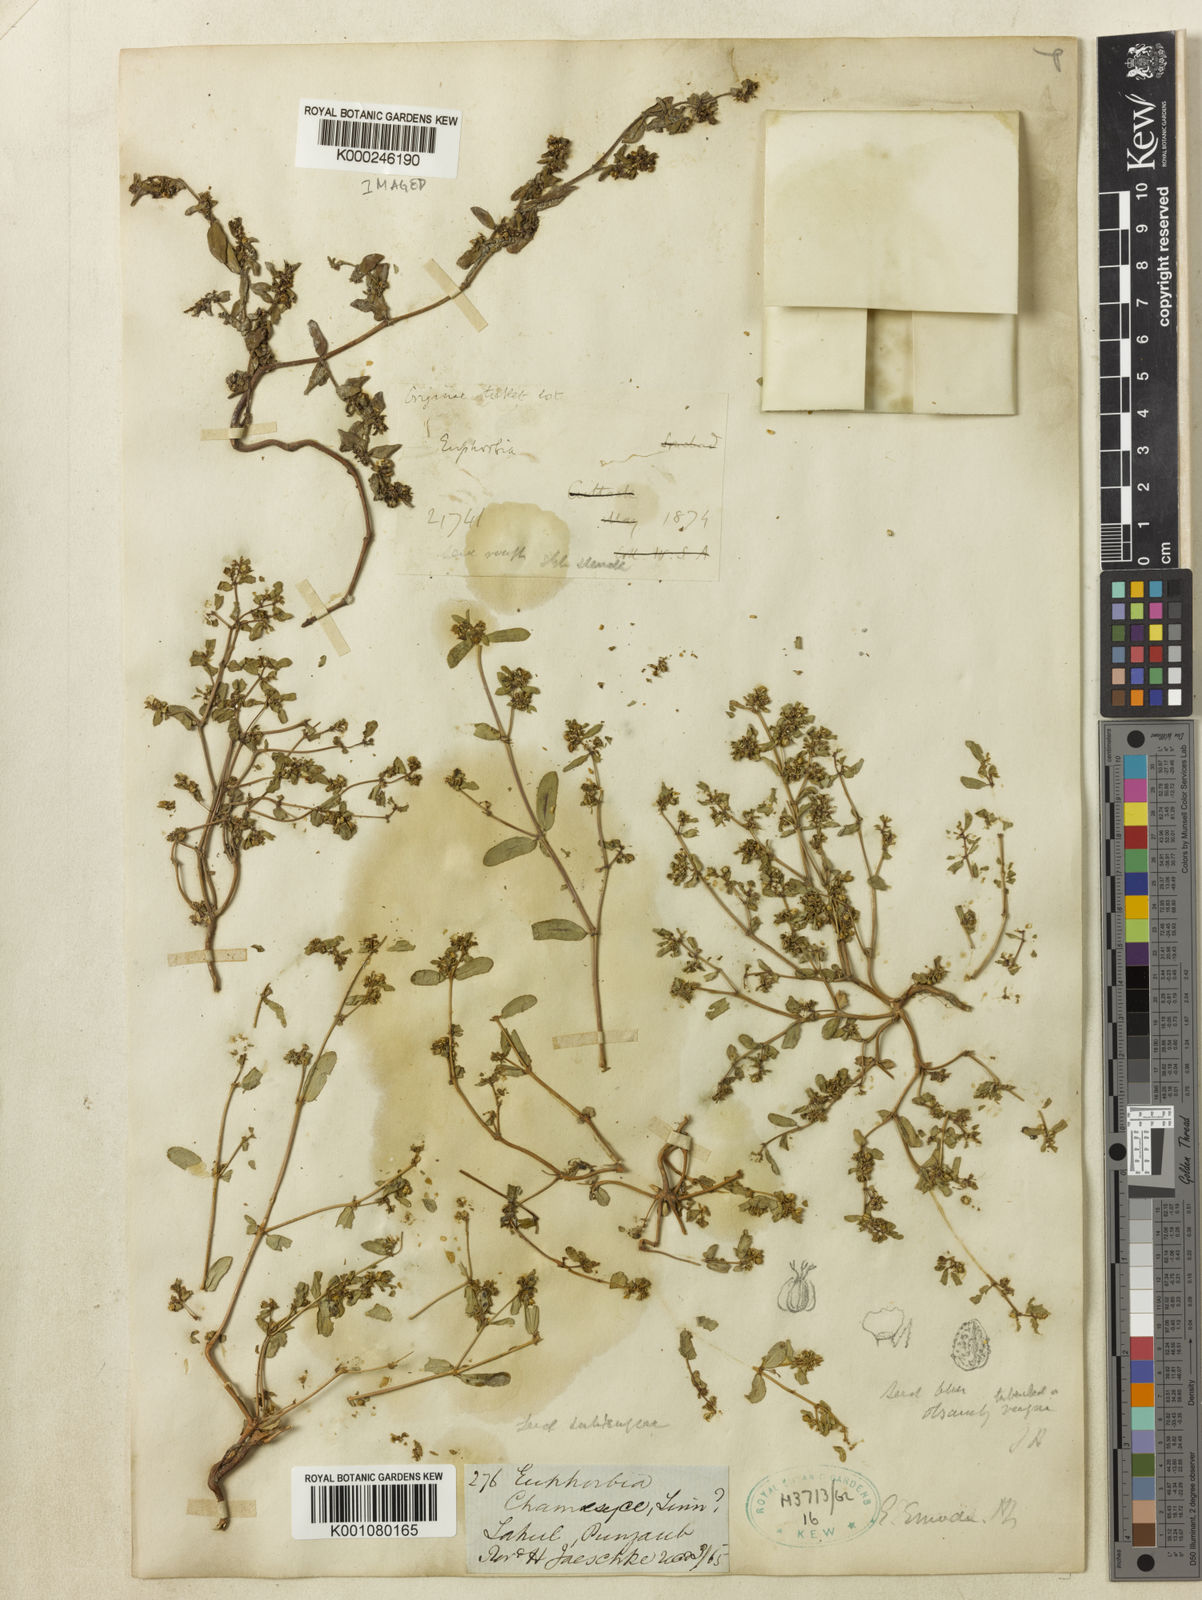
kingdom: Plantae
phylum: Tracheophyta
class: Magnoliopsida
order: Malpighiales
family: Euphorbiaceae
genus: Euphorbia
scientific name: Euphorbia hispida
